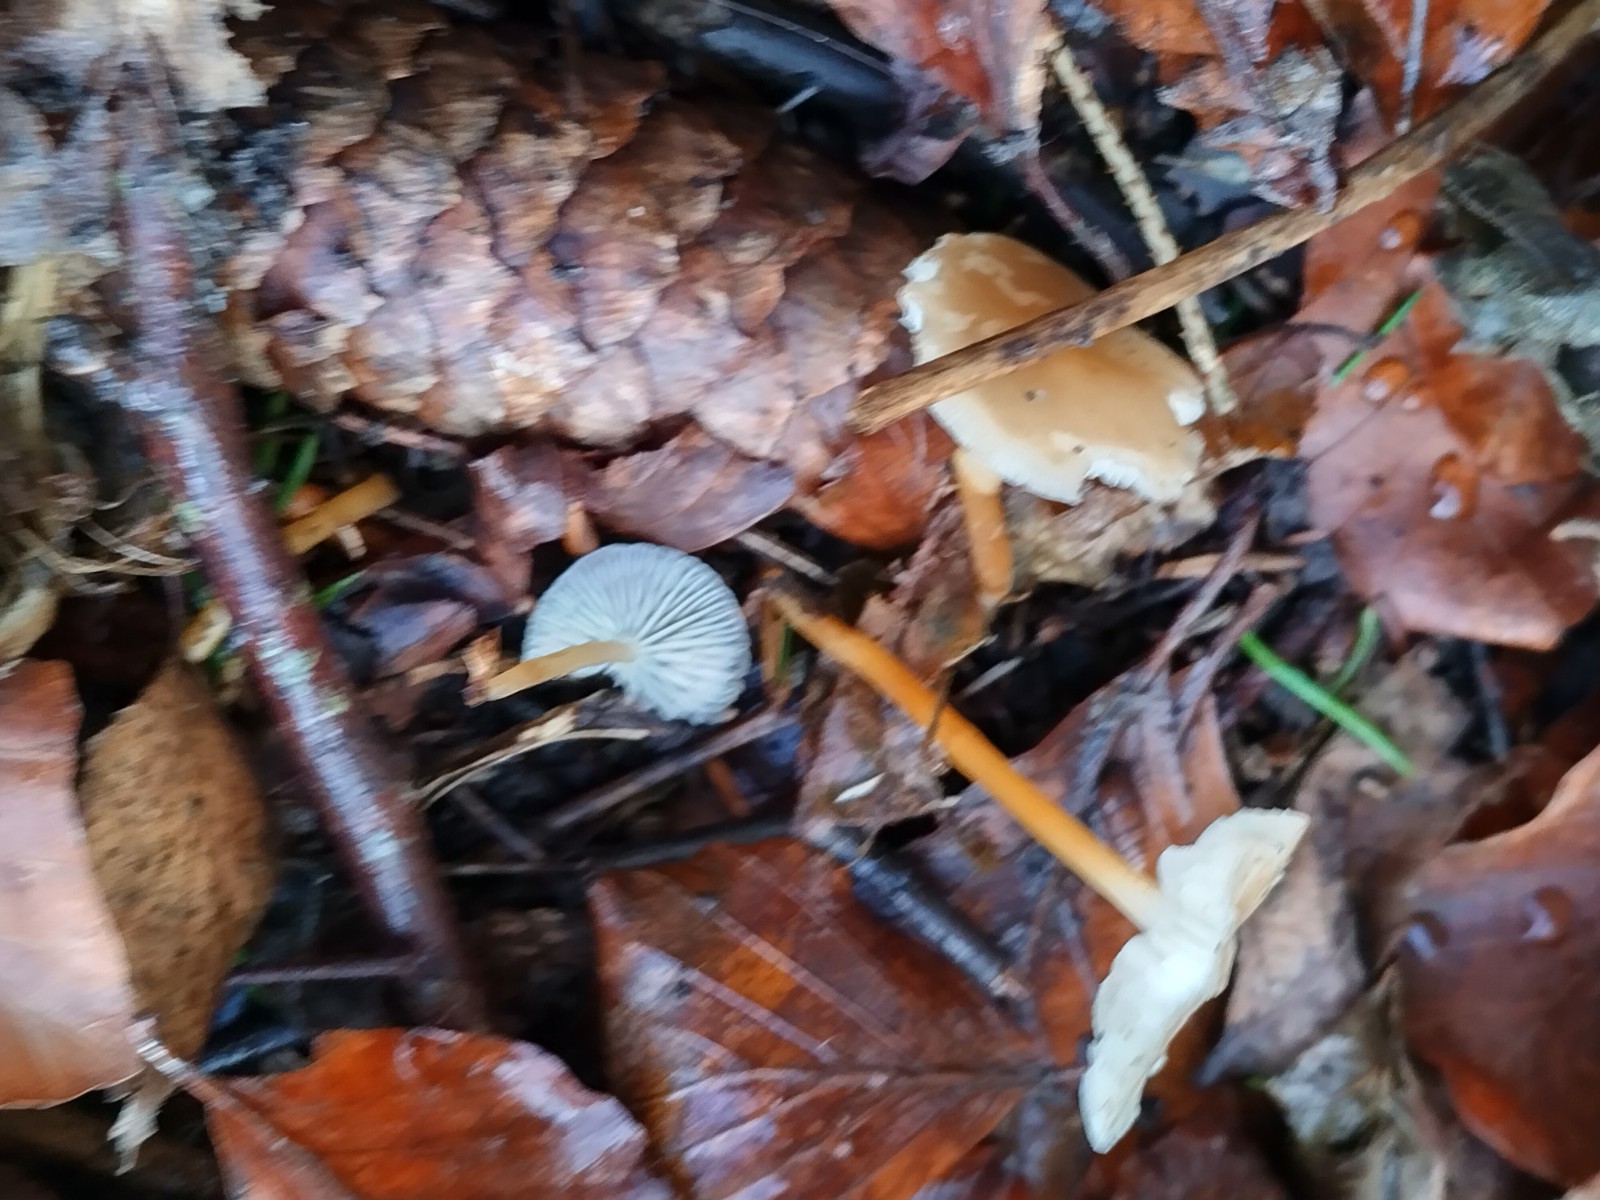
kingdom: Fungi
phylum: Basidiomycota
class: Agaricomycetes
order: Agaricales
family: Physalacriaceae
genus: Strobilurus
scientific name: Strobilurus esculentus
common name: gran-koglehat
